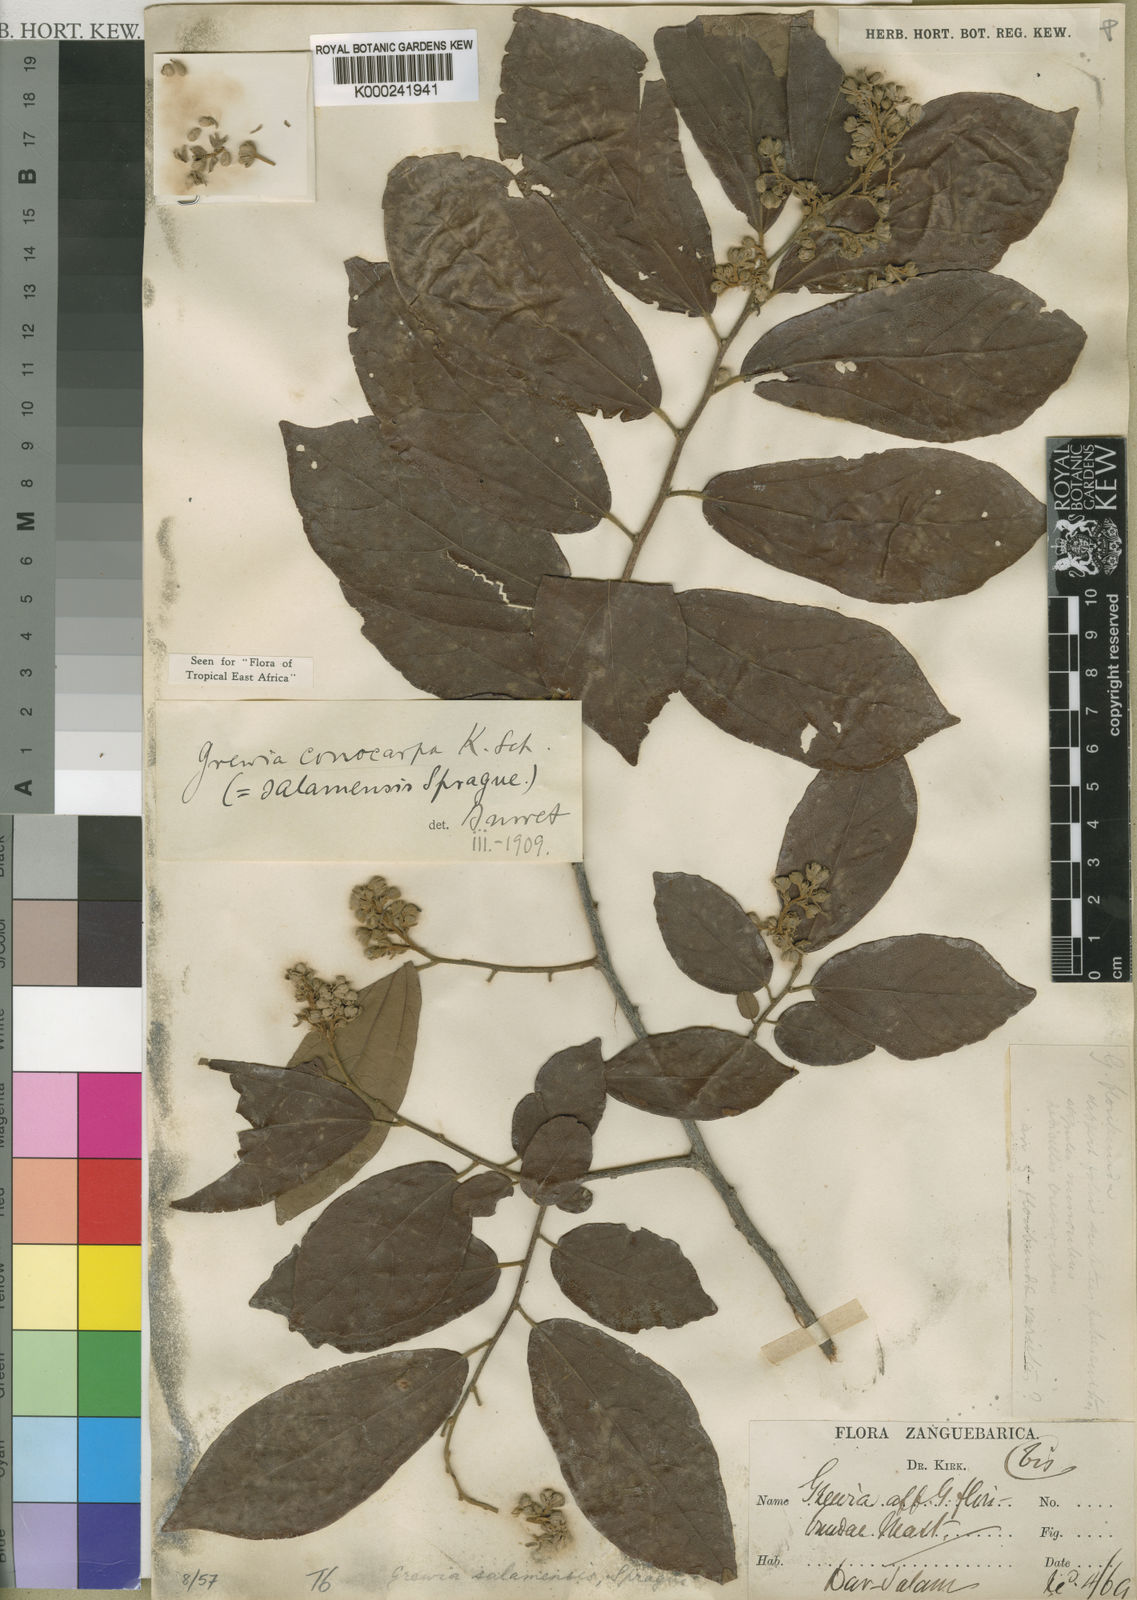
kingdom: Plantae
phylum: Tracheophyta
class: Magnoliopsida
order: Malvales
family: Malvaceae
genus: Microcos
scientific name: Microcos conocarpa
